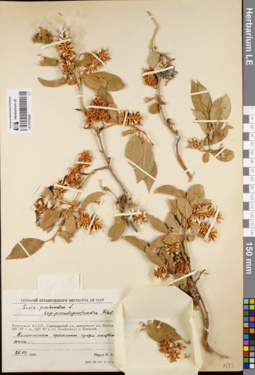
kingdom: Plantae
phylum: Tracheophyta
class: Magnoliopsida
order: Malpighiales
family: Salicaceae
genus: Salix
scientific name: Salix pseudopentandra
